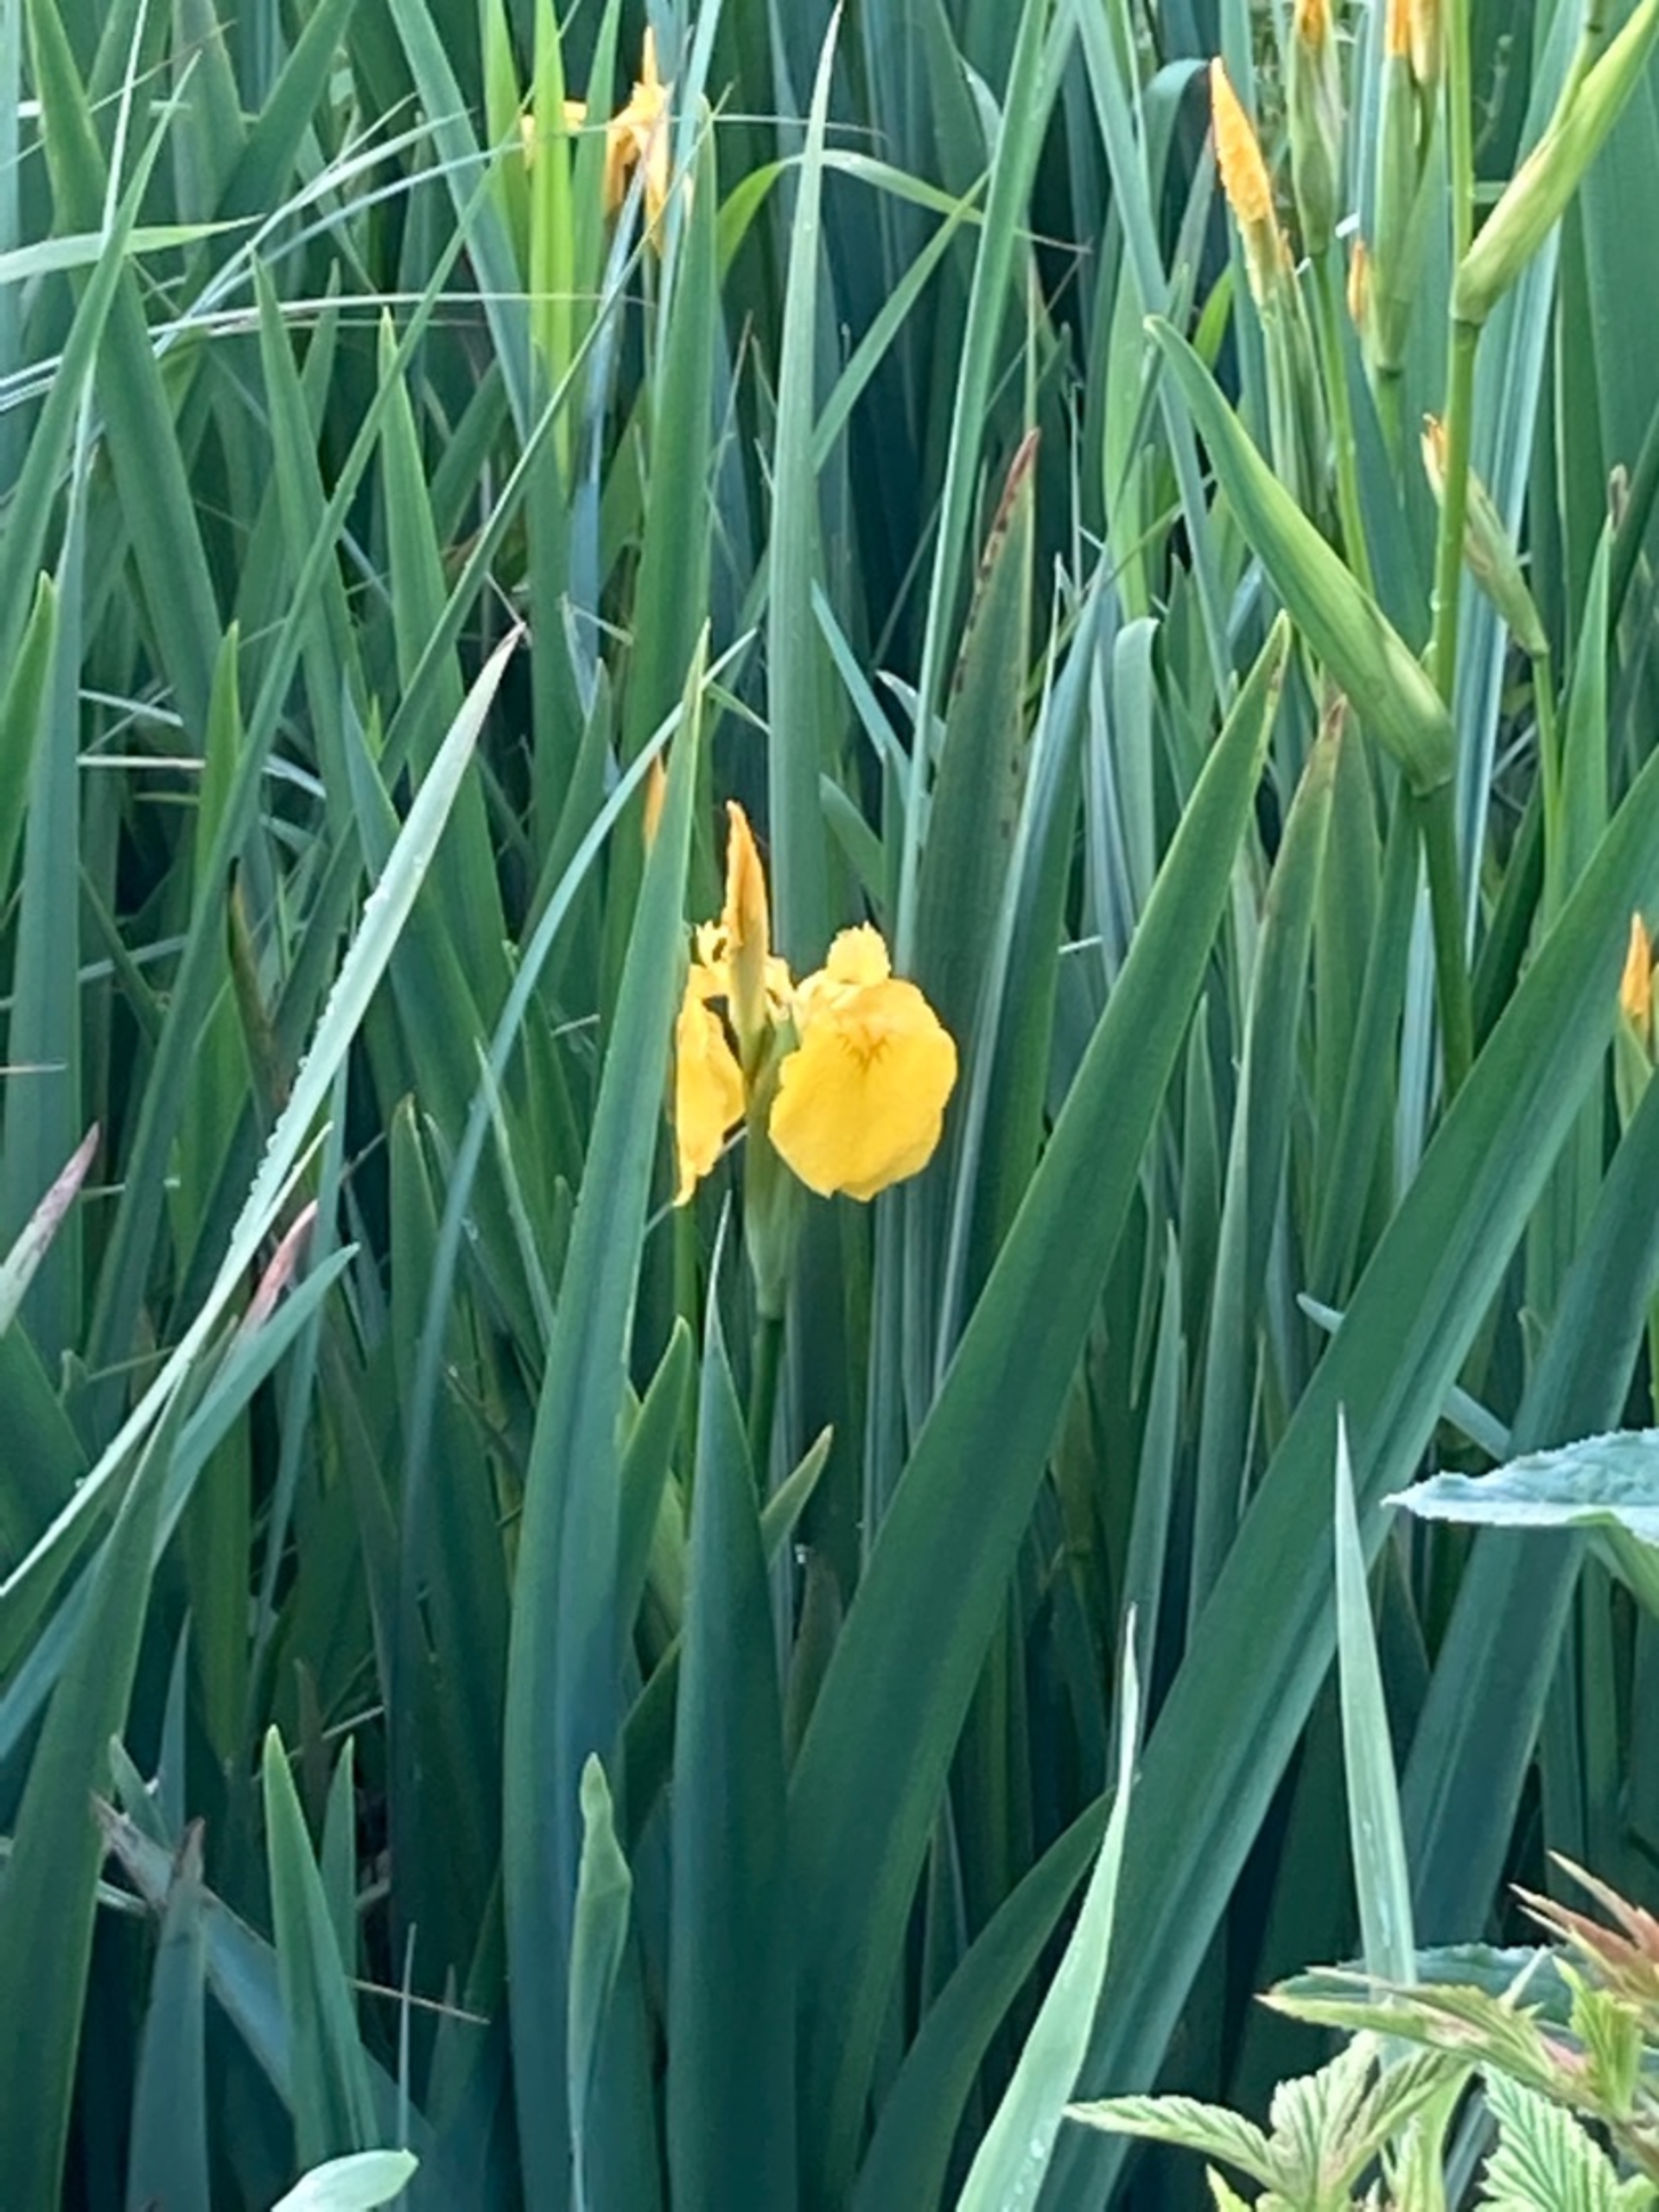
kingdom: Plantae
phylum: Tracheophyta
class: Liliopsida
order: Asparagales
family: Iridaceae
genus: Iris
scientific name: Iris pseudacorus
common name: Gul iris
